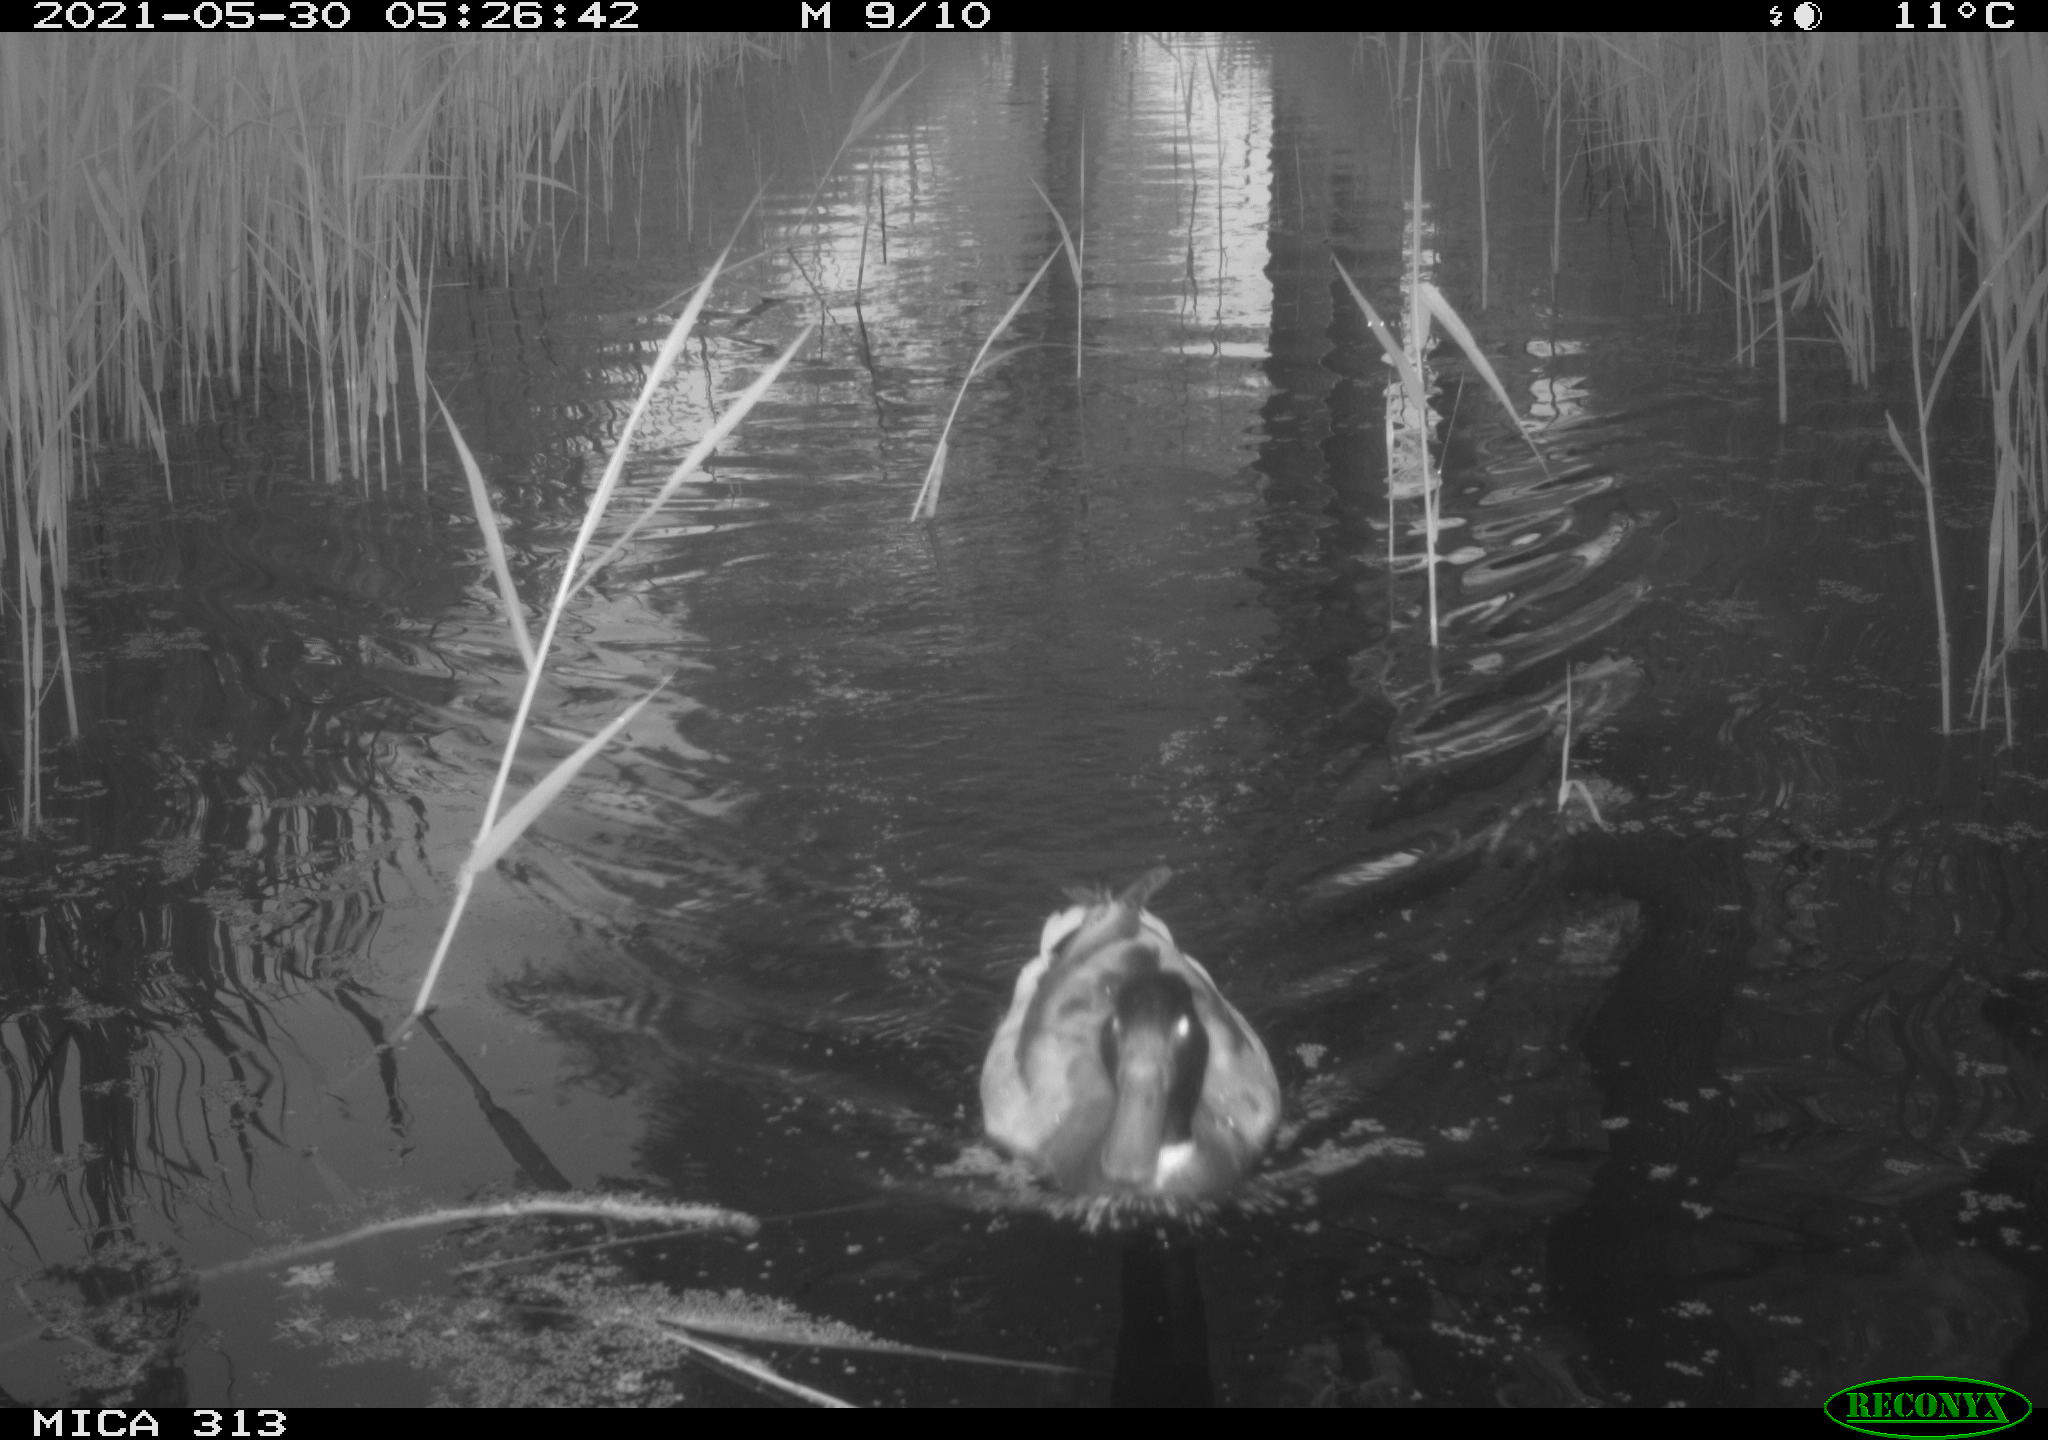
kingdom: Animalia
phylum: Chordata
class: Aves
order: Anseriformes
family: Anatidae
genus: Anas
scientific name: Anas platyrhynchos
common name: Mallard
